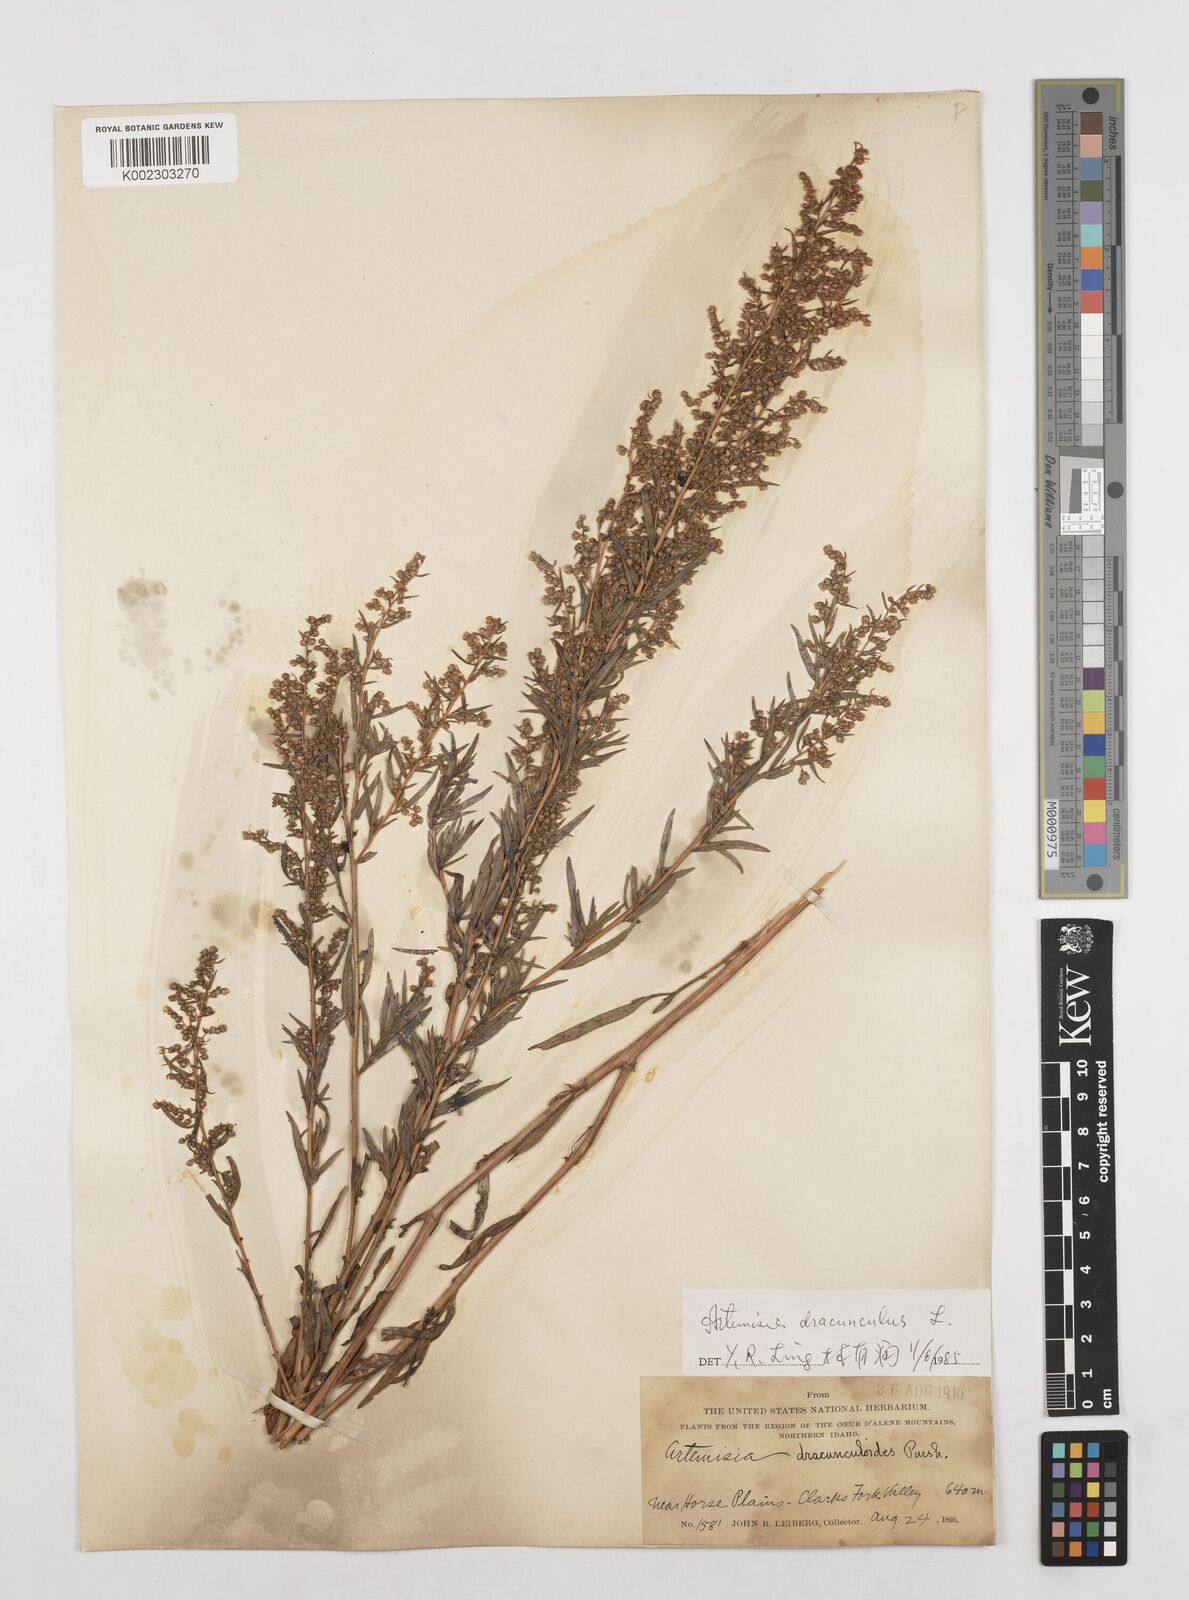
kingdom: Plantae
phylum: Tracheophyta
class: Magnoliopsida
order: Asterales
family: Asteraceae
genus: Artemisia
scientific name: Artemisia dracunculus
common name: Tarragon
